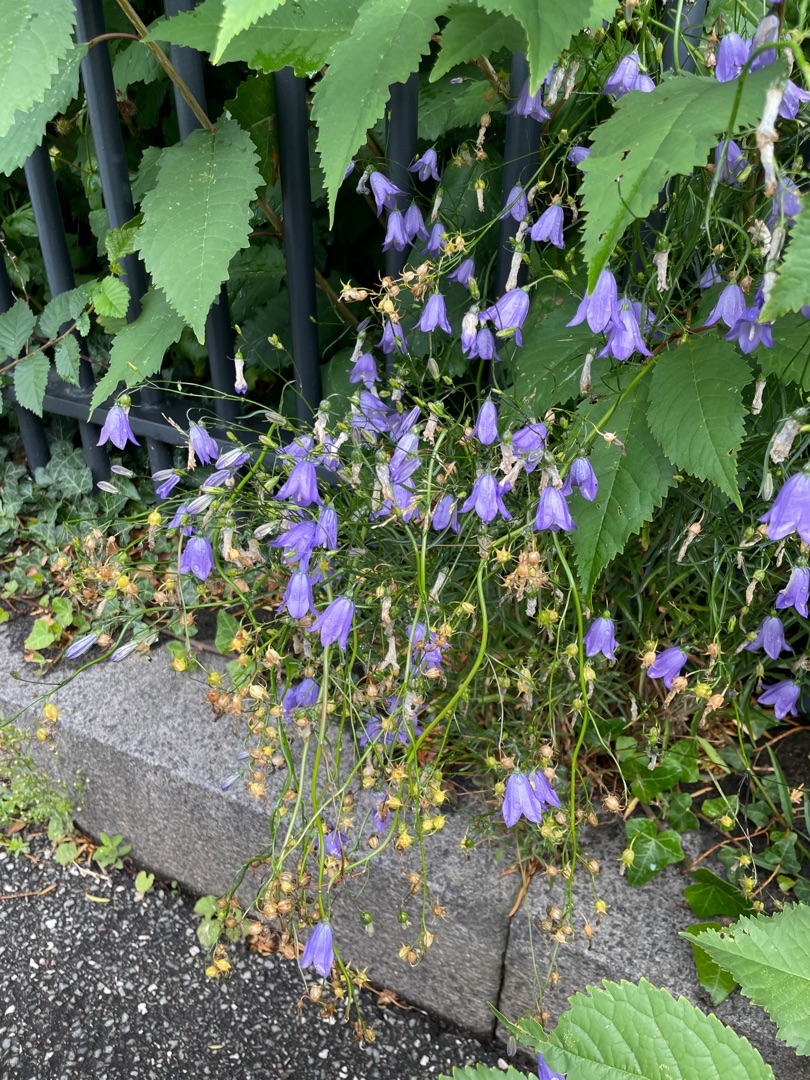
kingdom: Plantae
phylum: Tracheophyta
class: Magnoliopsida
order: Asterales
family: Campanulaceae
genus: Campanula
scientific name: Campanula rotundifolia
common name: Liden klokke
